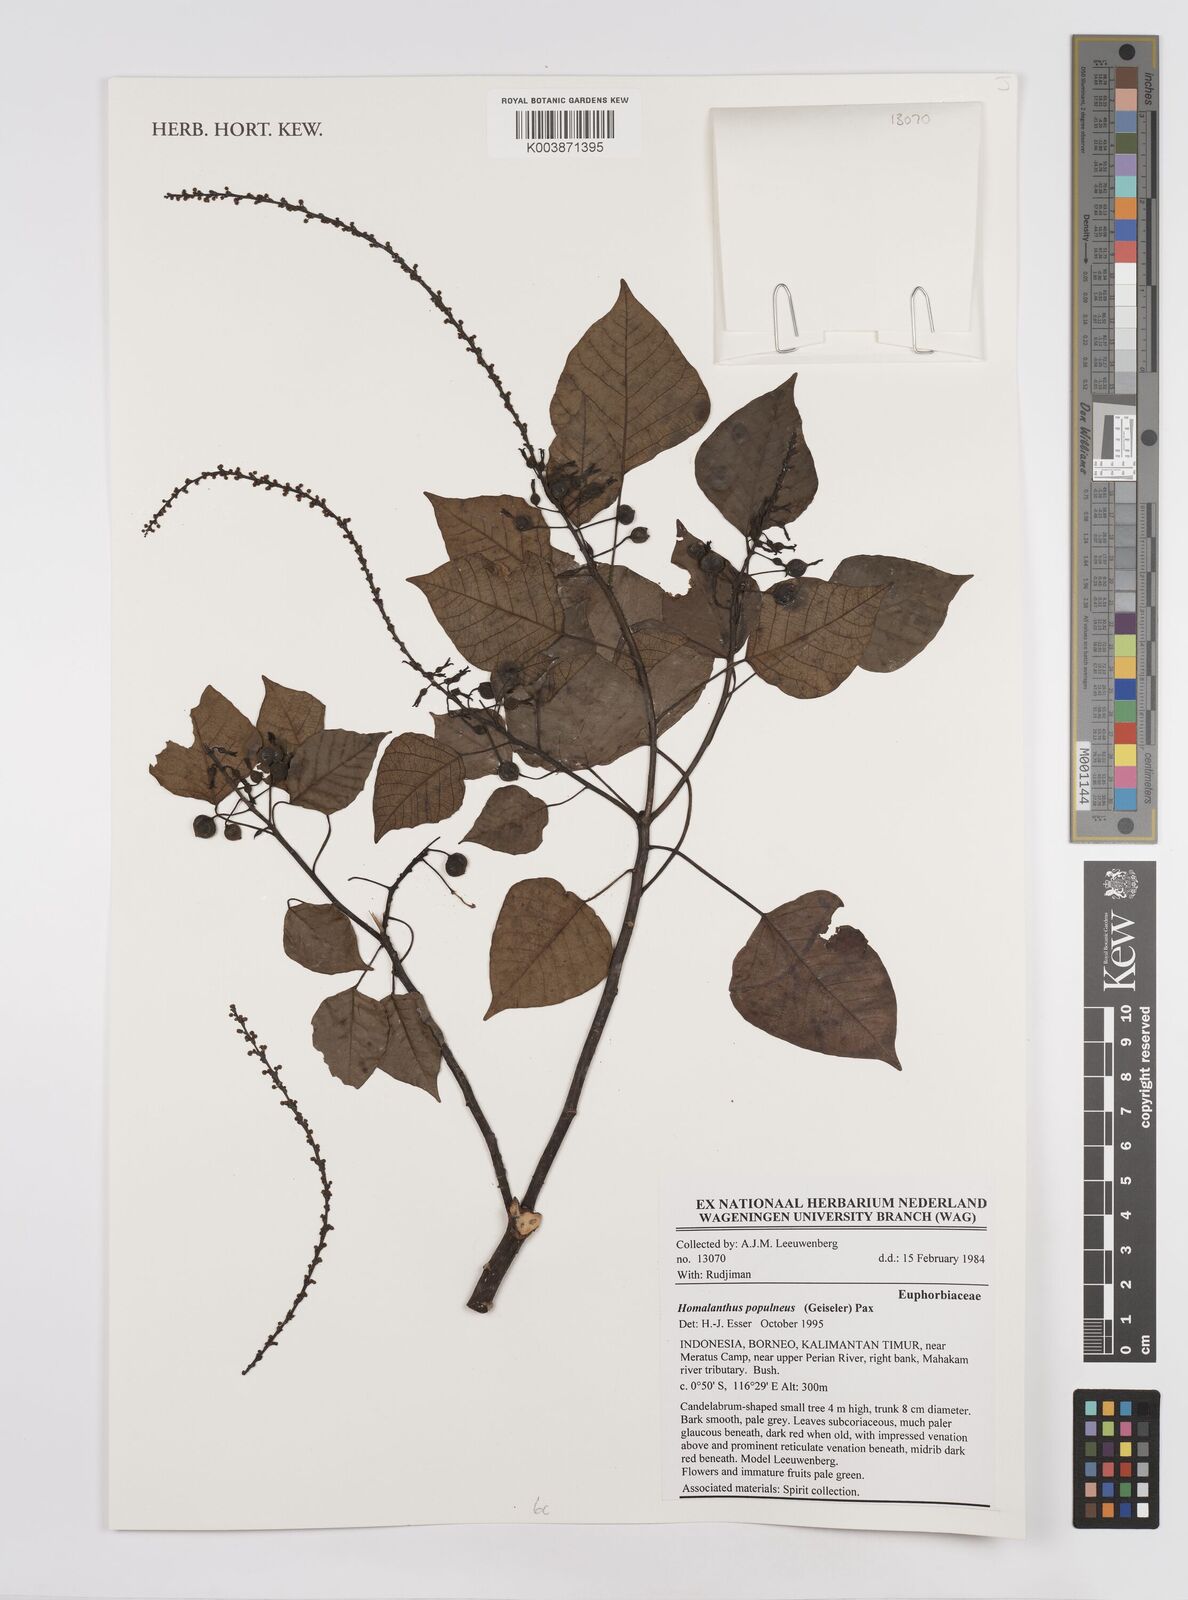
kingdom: Plantae
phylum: Tracheophyta
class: Magnoliopsida
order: Malpighiales
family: Euphorbiaceae
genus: Homalanthus
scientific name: Homalanthus populneus
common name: Spurge
